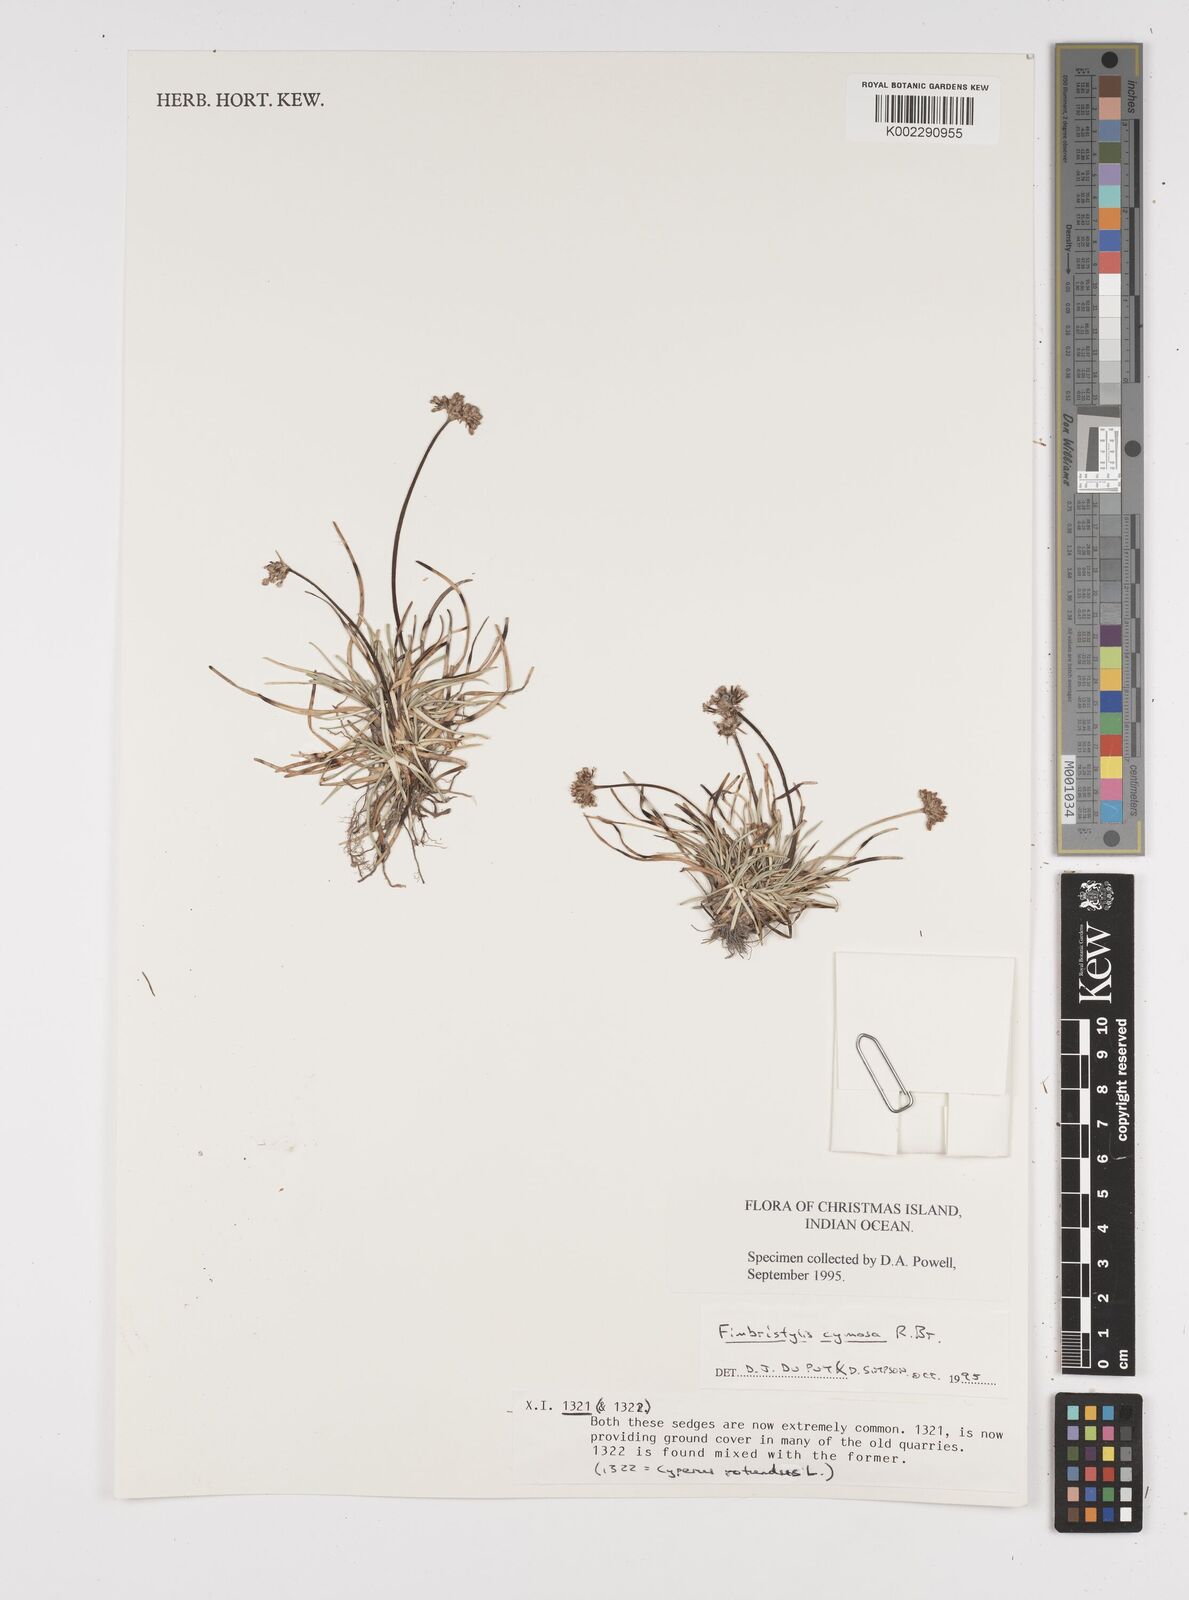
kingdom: Plantae
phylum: Tracheophyta
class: Liliopsida
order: Poales
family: Cyperaceae
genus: Fimbristylis
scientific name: Fimbristylis cymosa
